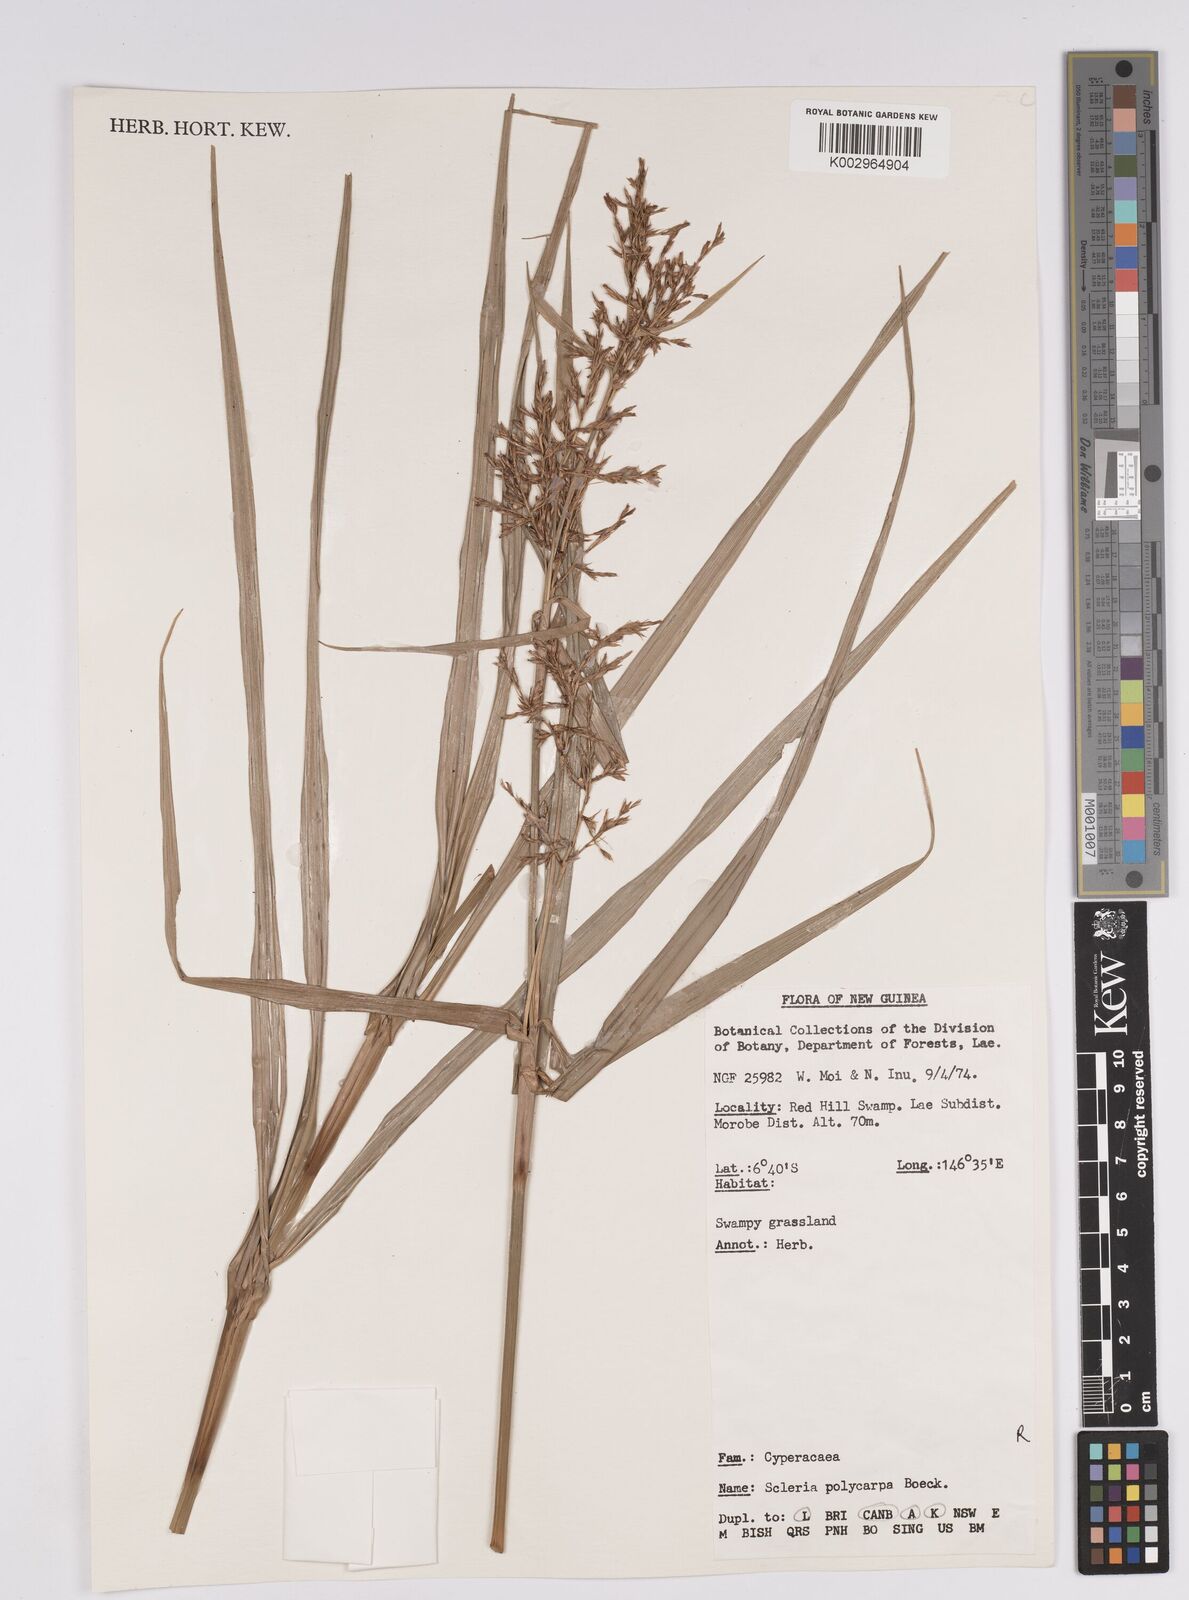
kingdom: Plantae
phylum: Tracheophyta
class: Liliopsida
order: Poales
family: Cyperaceae
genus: Scleria
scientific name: Scleria polycarpa
